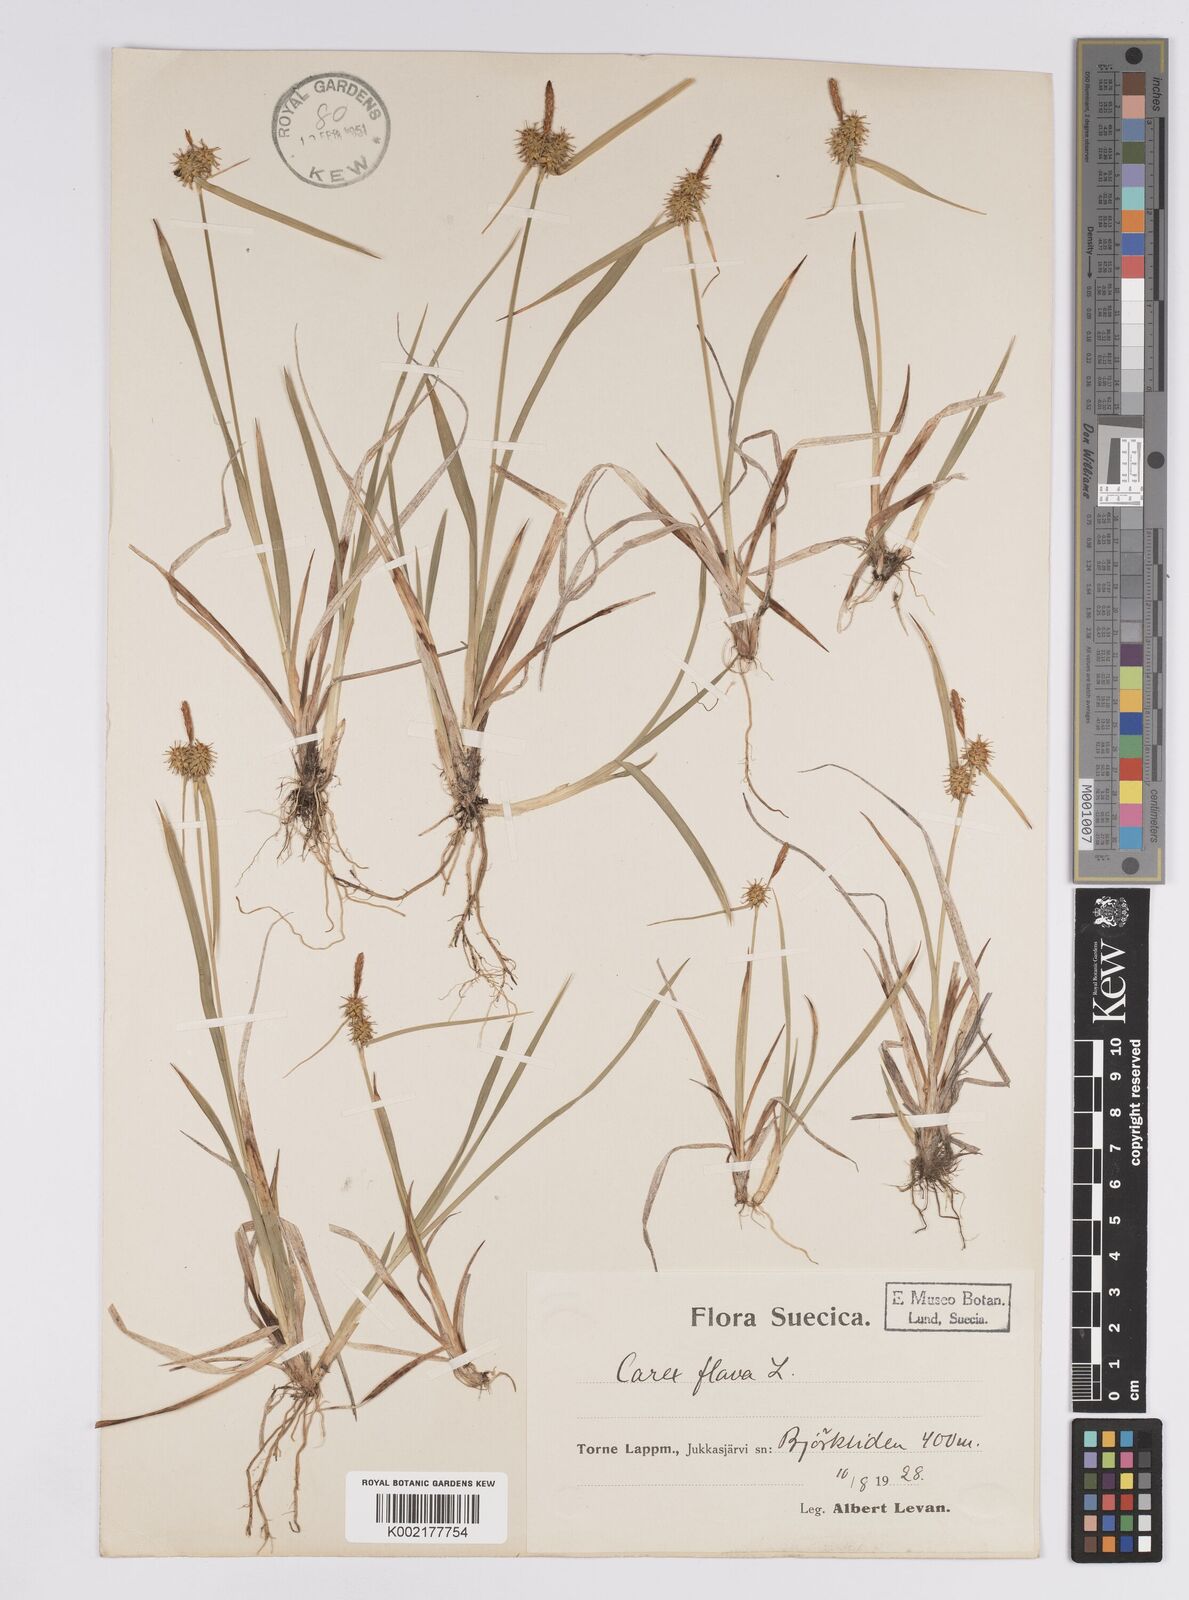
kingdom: Plantae
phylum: Tracheophyta
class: Liliopsida
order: Poales
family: Cyperaceae
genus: Carex
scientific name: Carex flava
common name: Large yellow-sedge
